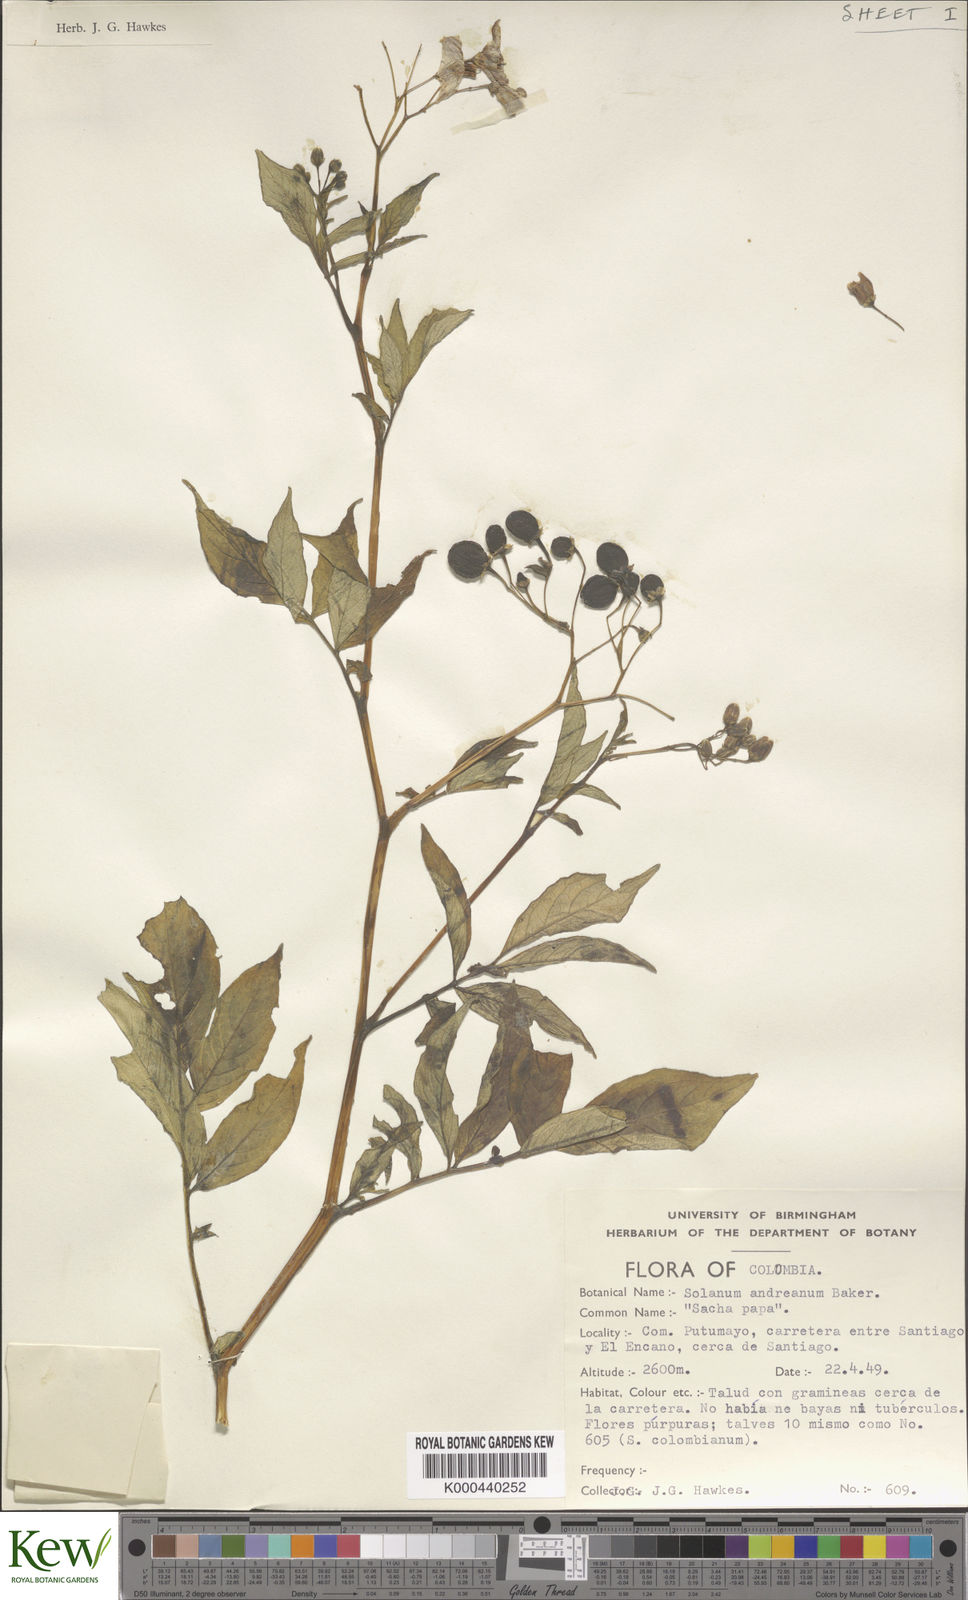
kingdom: Plantae
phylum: Tracheophyta
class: Magnoliopsida
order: Solanales
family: Solanaceae
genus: Solanum
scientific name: Solanum andreanum
